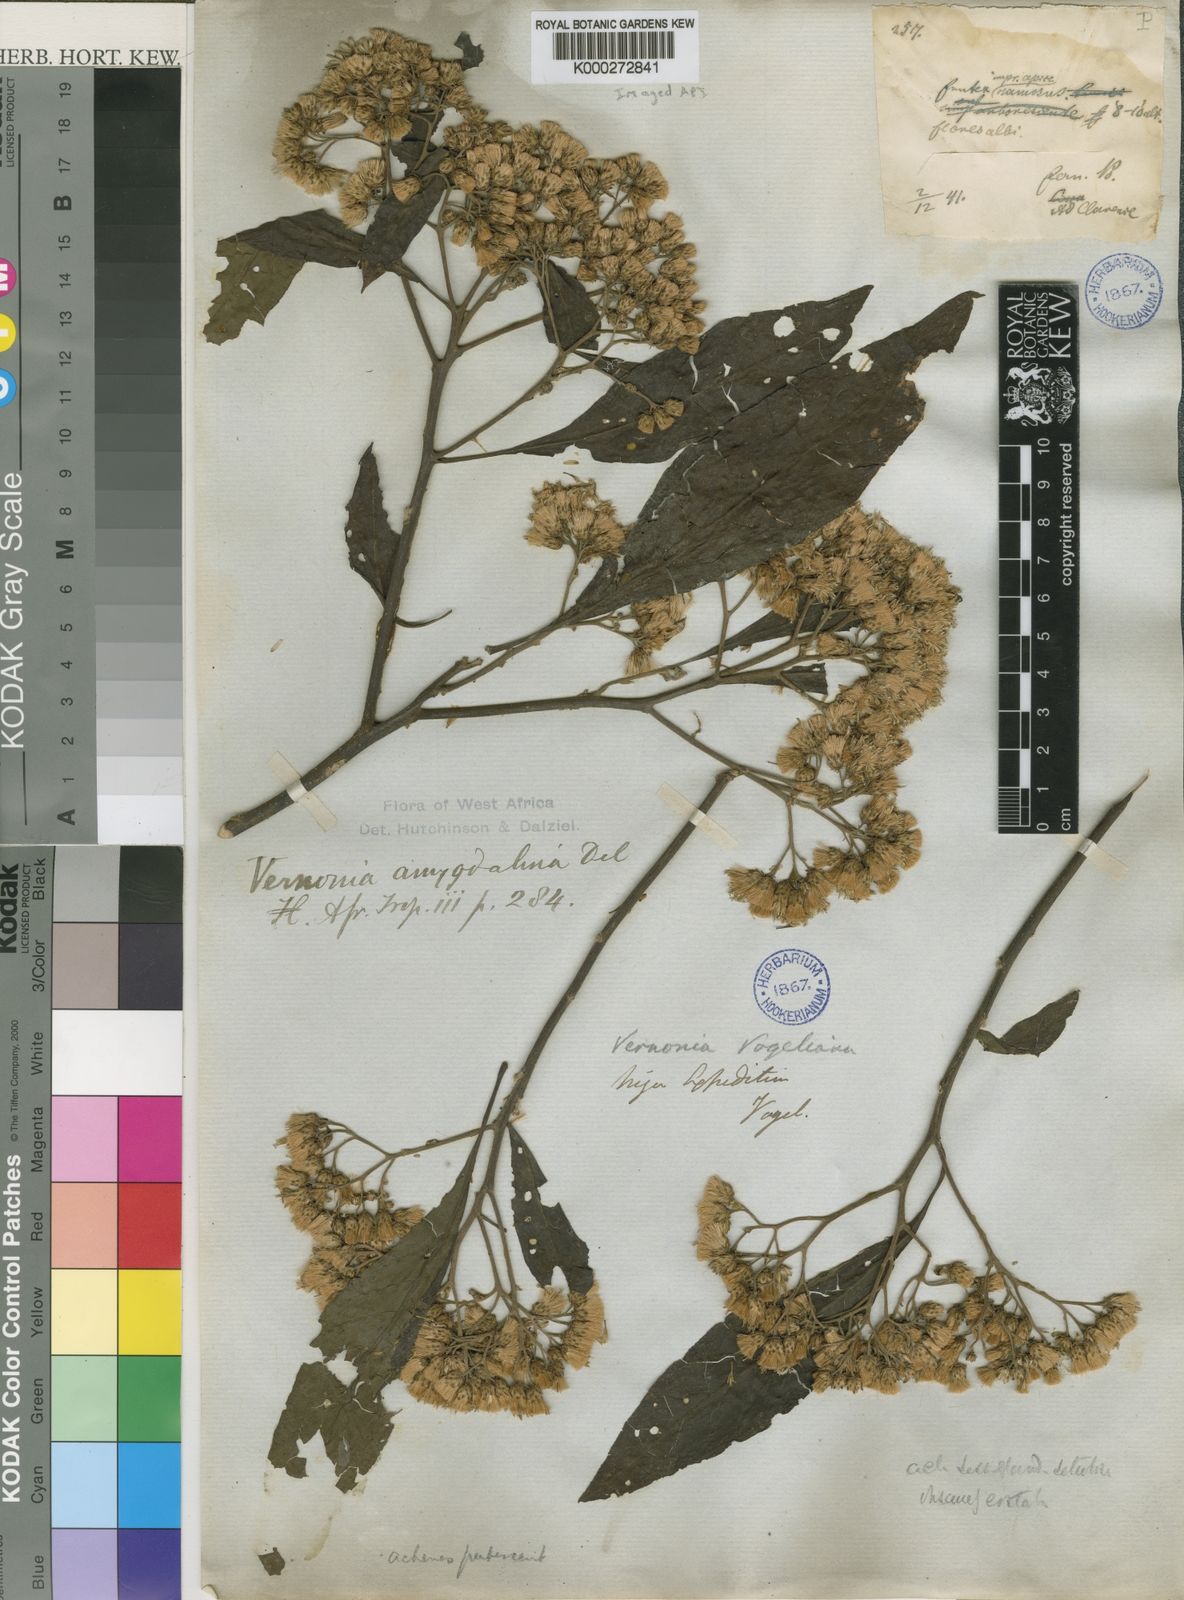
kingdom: Plantae
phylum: Tracheophyta
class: Magnoliopsida
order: Asterales
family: Asteraceae
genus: Gymnanthemum
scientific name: Gymnanthemum amygdalinum
